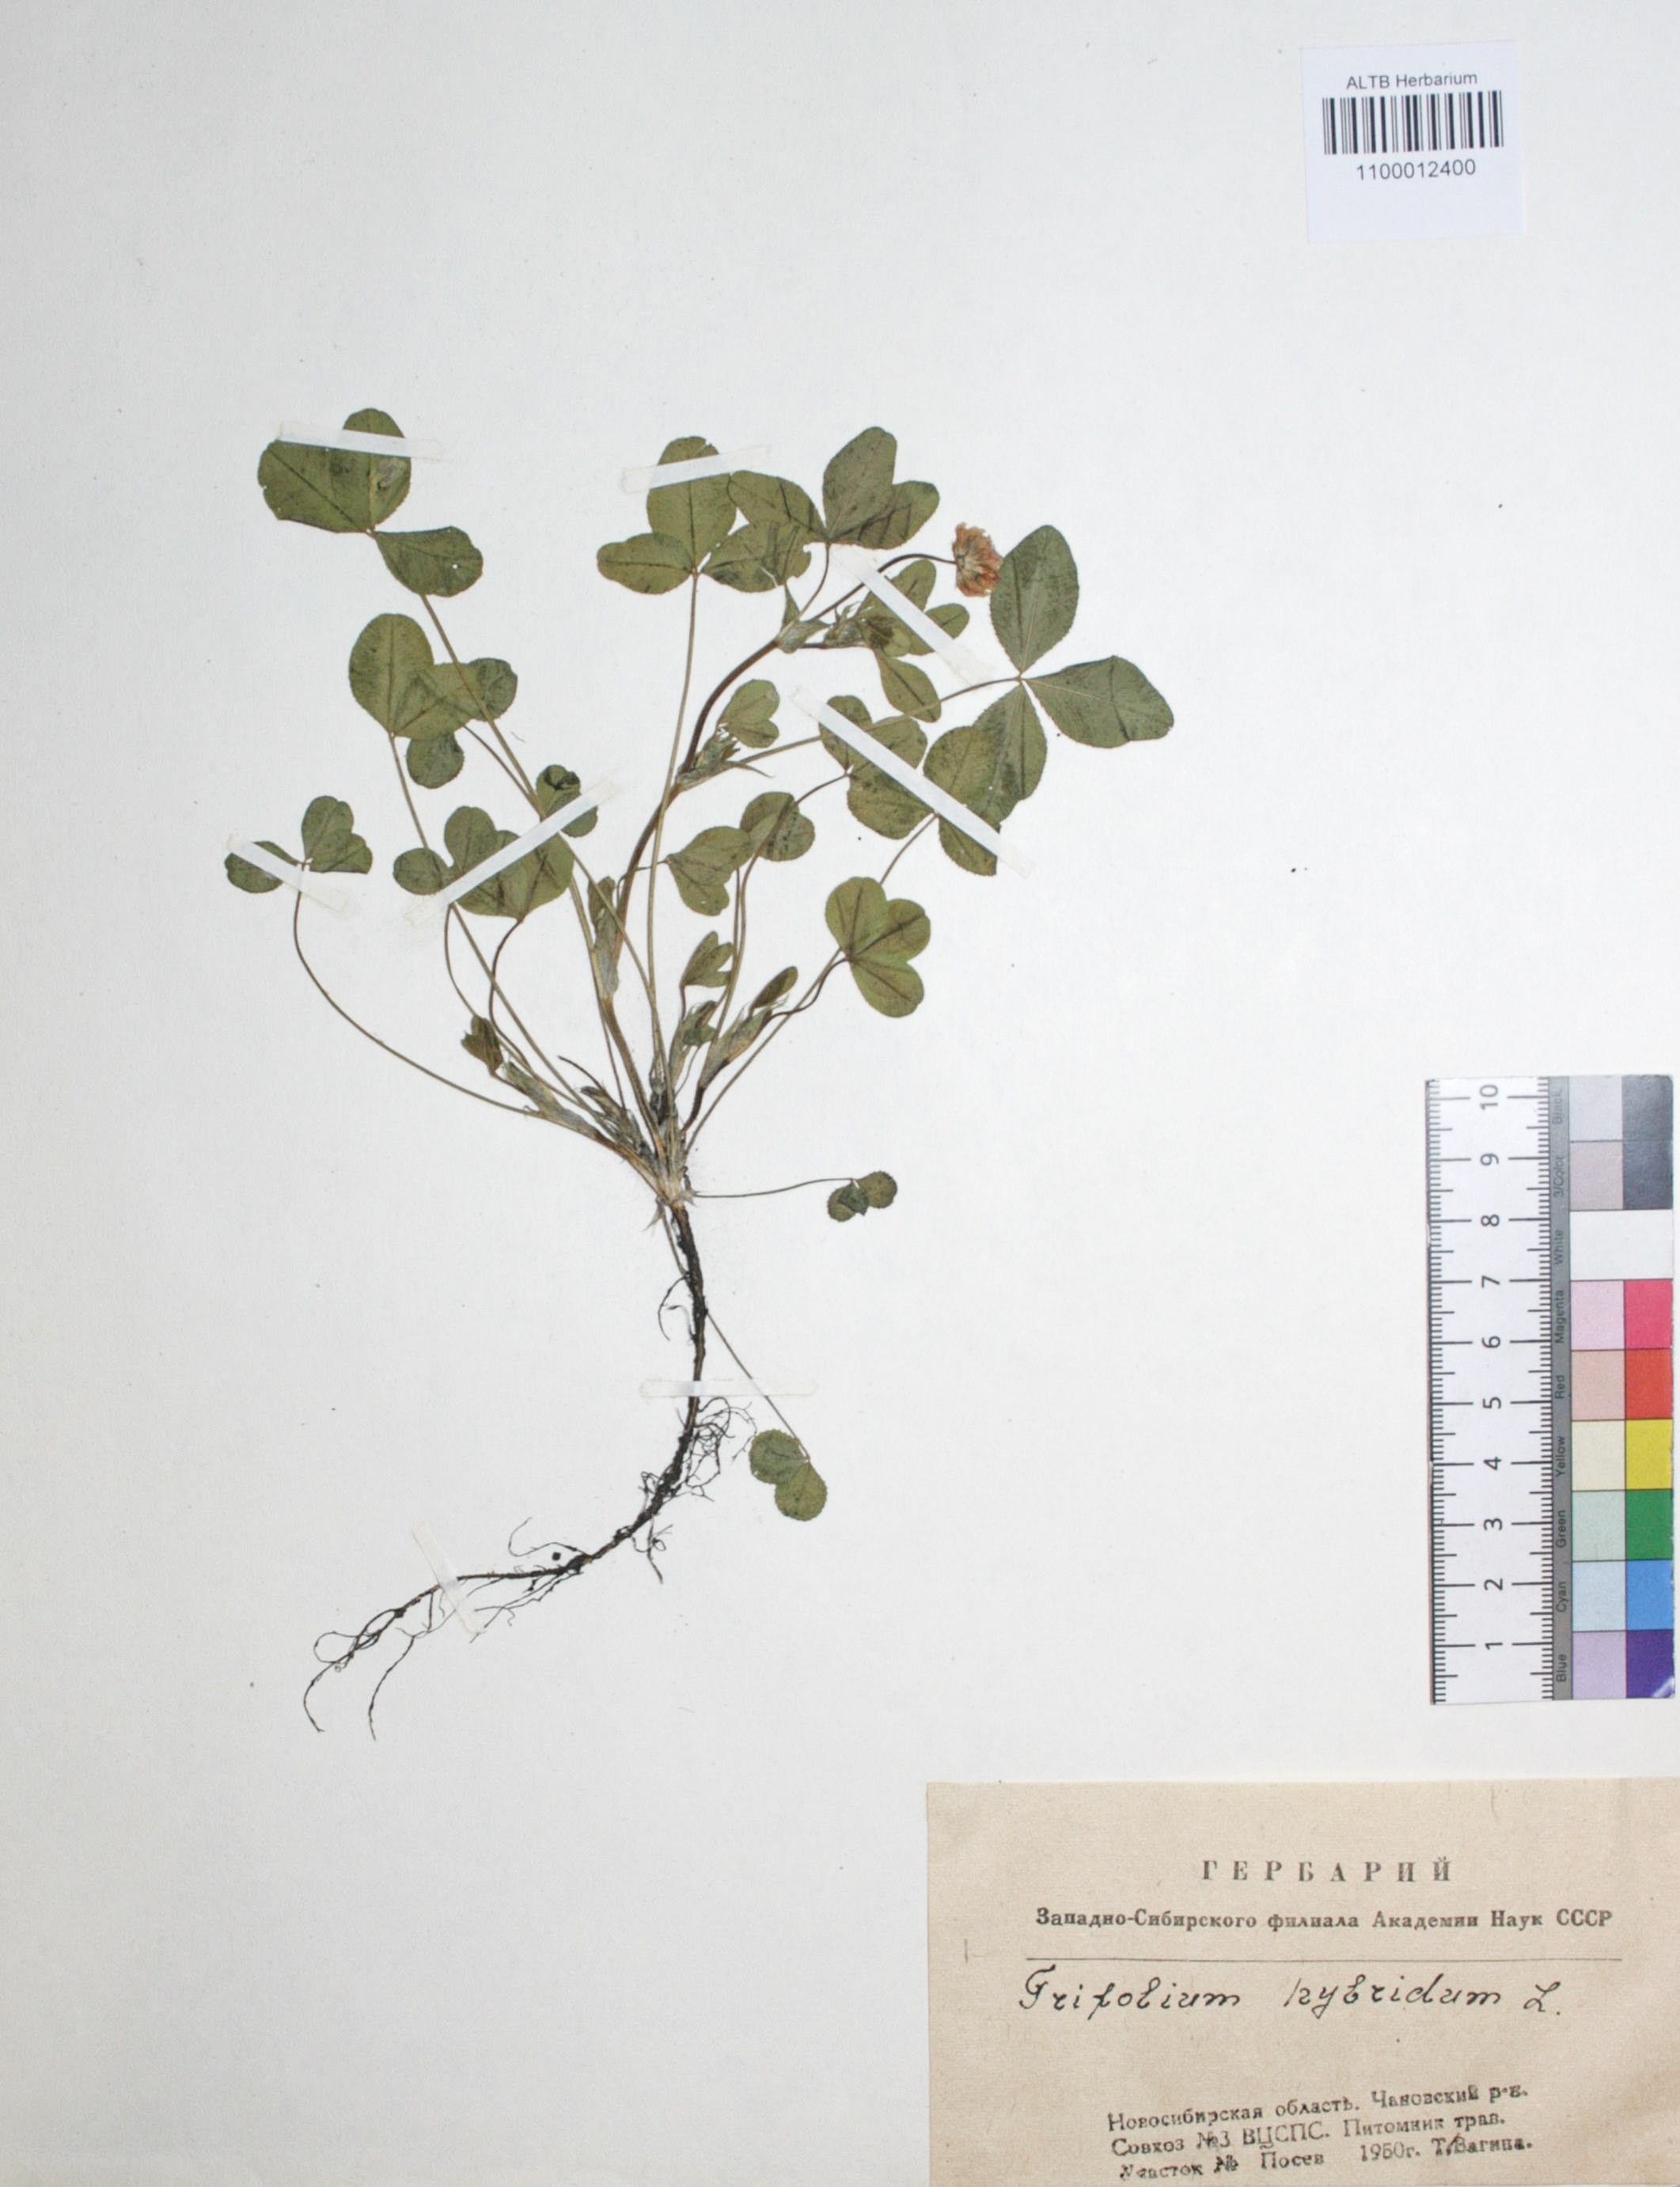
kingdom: Plantae
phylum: Tracheophyta
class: Magnoliopsida
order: Fabales
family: Fabaceae
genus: Trifolium
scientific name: Trifolium hybridum
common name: Alsike clover
